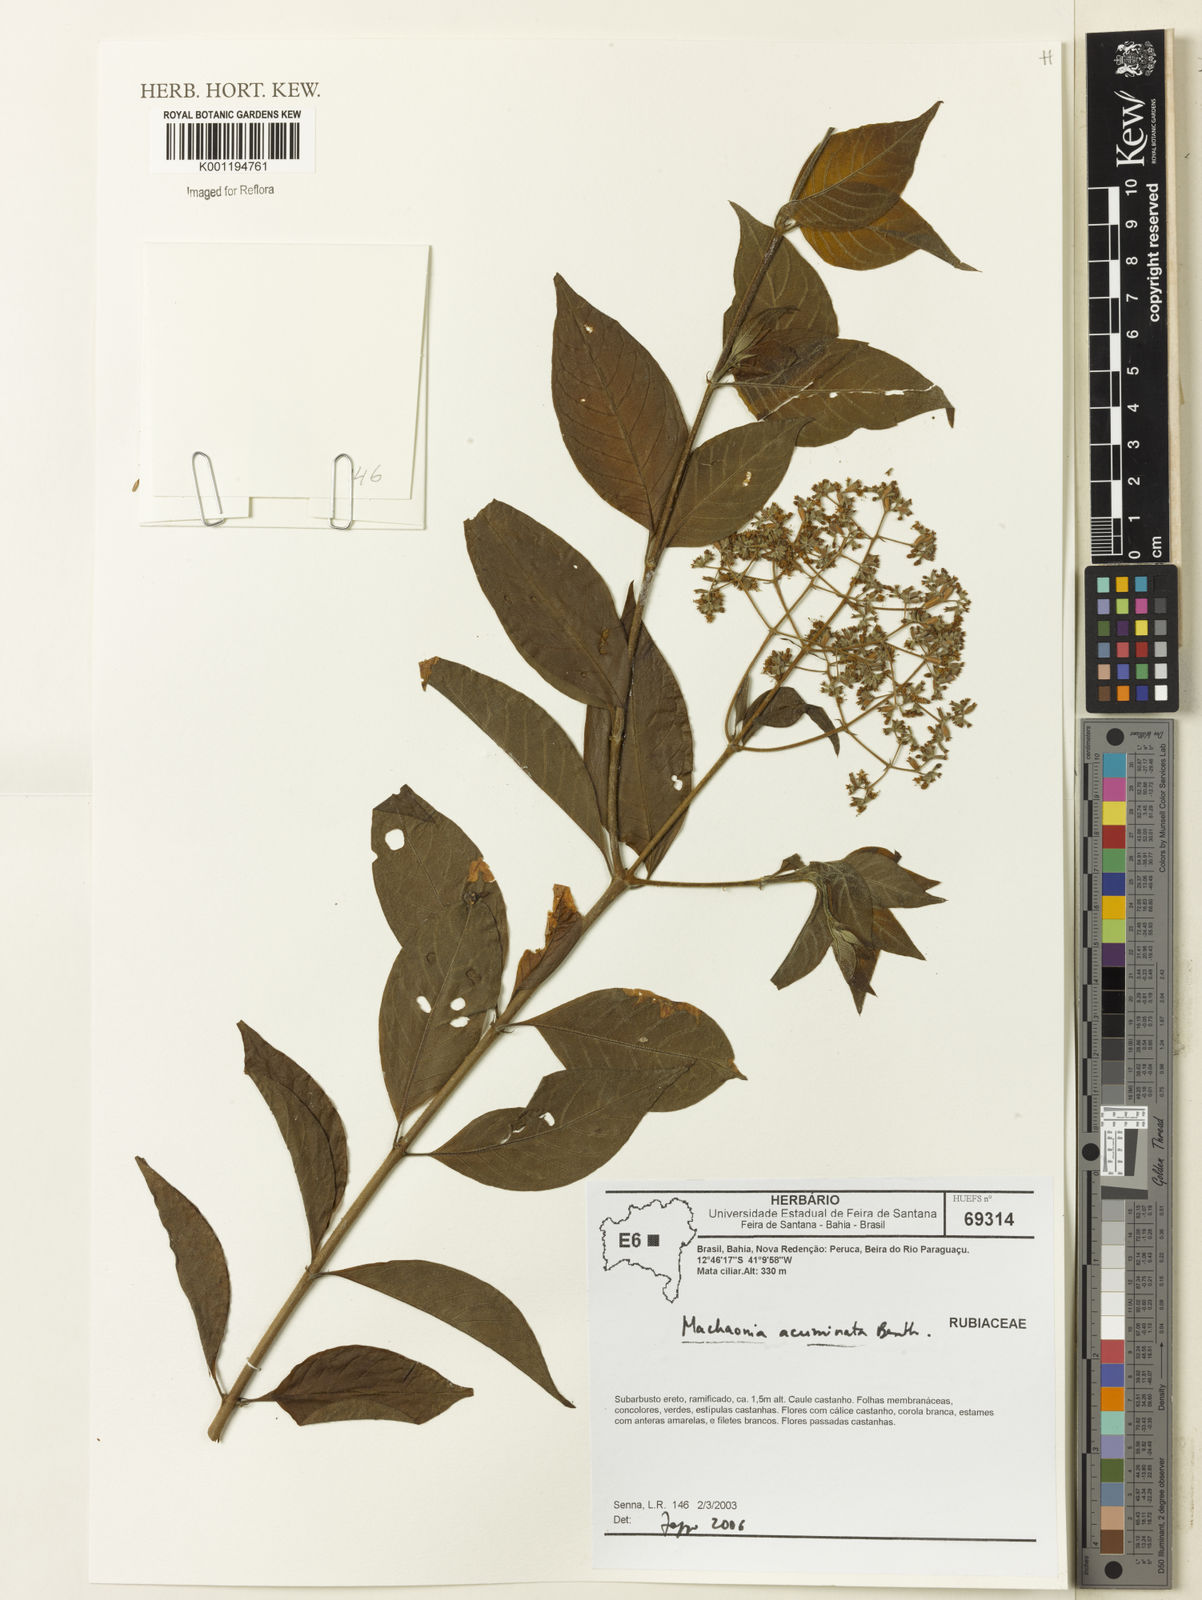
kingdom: Plantae
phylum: Tracheophyta
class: Magnoliopsida
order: Gentianales
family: Rubiaceae
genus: Machaonia
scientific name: Machaonia acuminata
